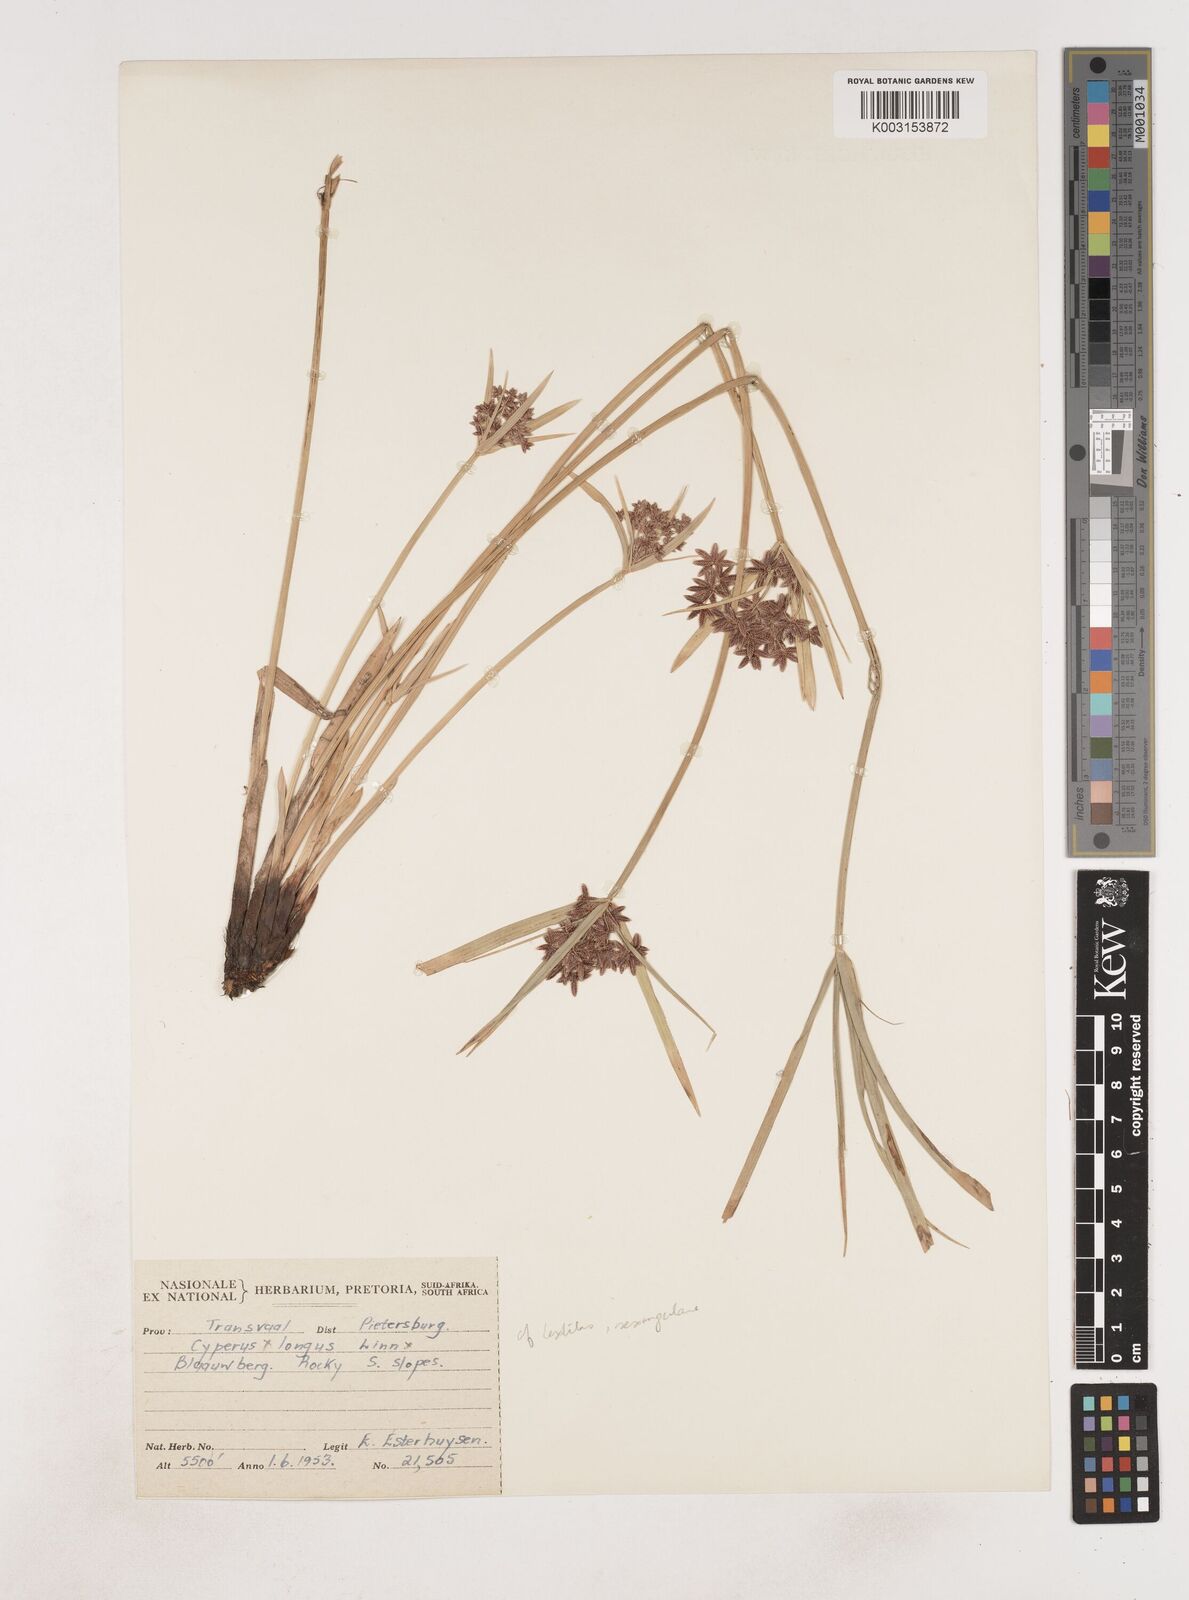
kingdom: Plantae
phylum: Tracheophyta
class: Liliopsida
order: Poales
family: Cyperaceae
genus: Cyperus
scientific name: Cyperus
